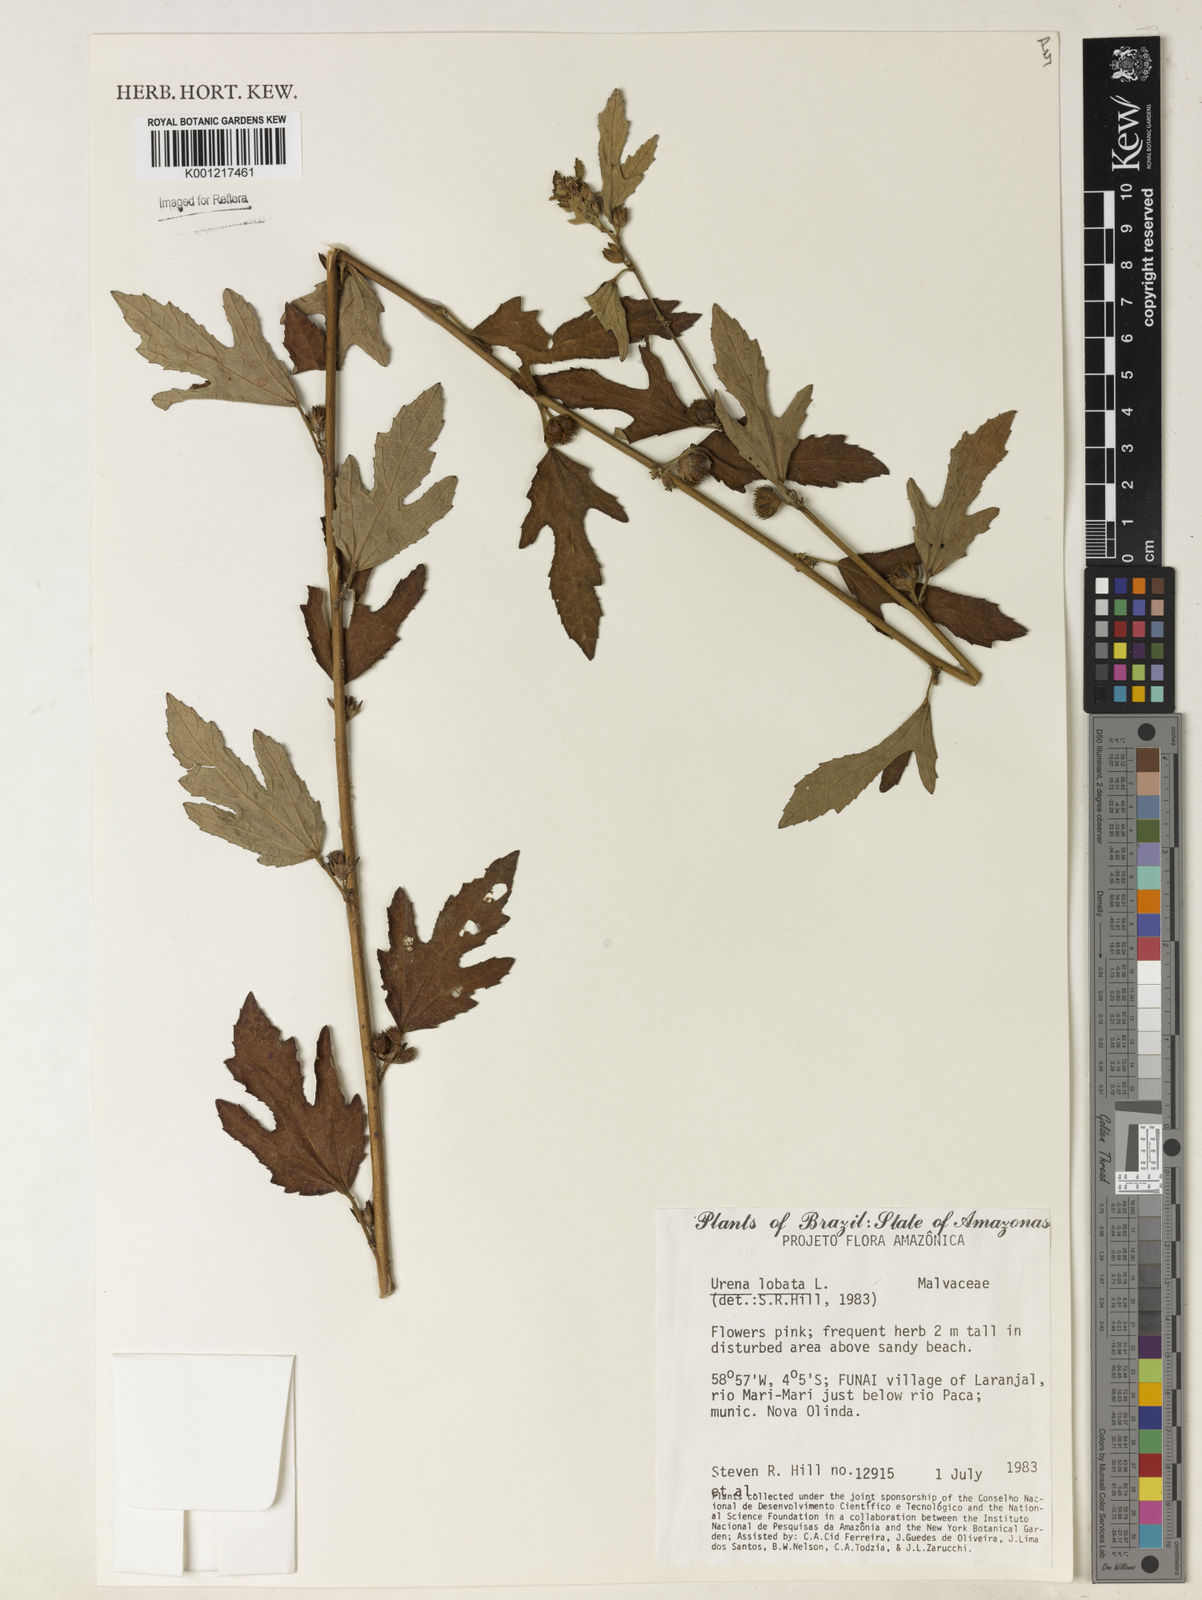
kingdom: Plantae
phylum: Tracheophyta
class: Magnoliopsida
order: Malvales
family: Malvaceae
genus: Urena
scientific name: Urena lobata
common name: Caesarweed
